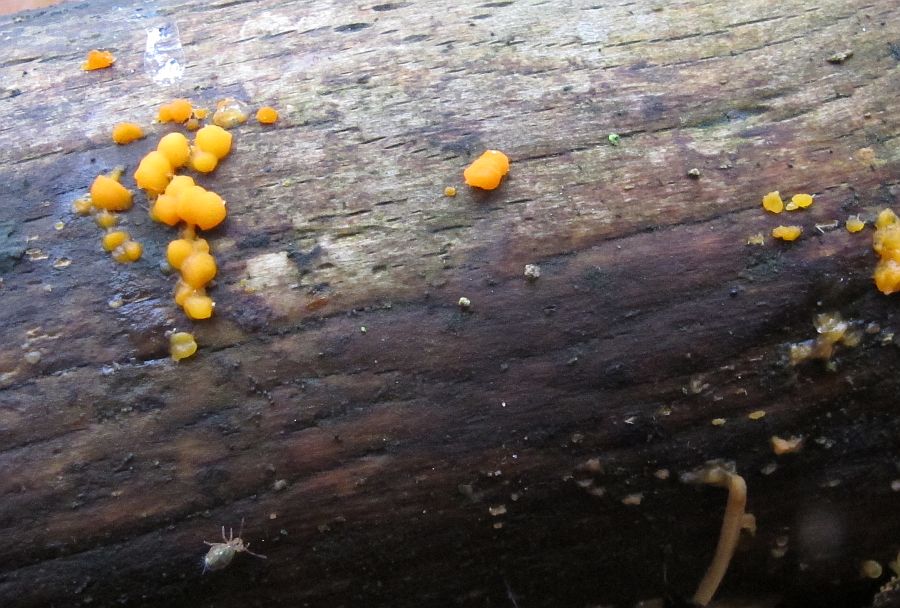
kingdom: Fungi
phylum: Basidiomycota
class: Dacrymycetes
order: Dacrymycetales
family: Dacrymycetaceae
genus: Dacrymyces
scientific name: Dacrymyces stillatus
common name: almindelig tåresvamp
